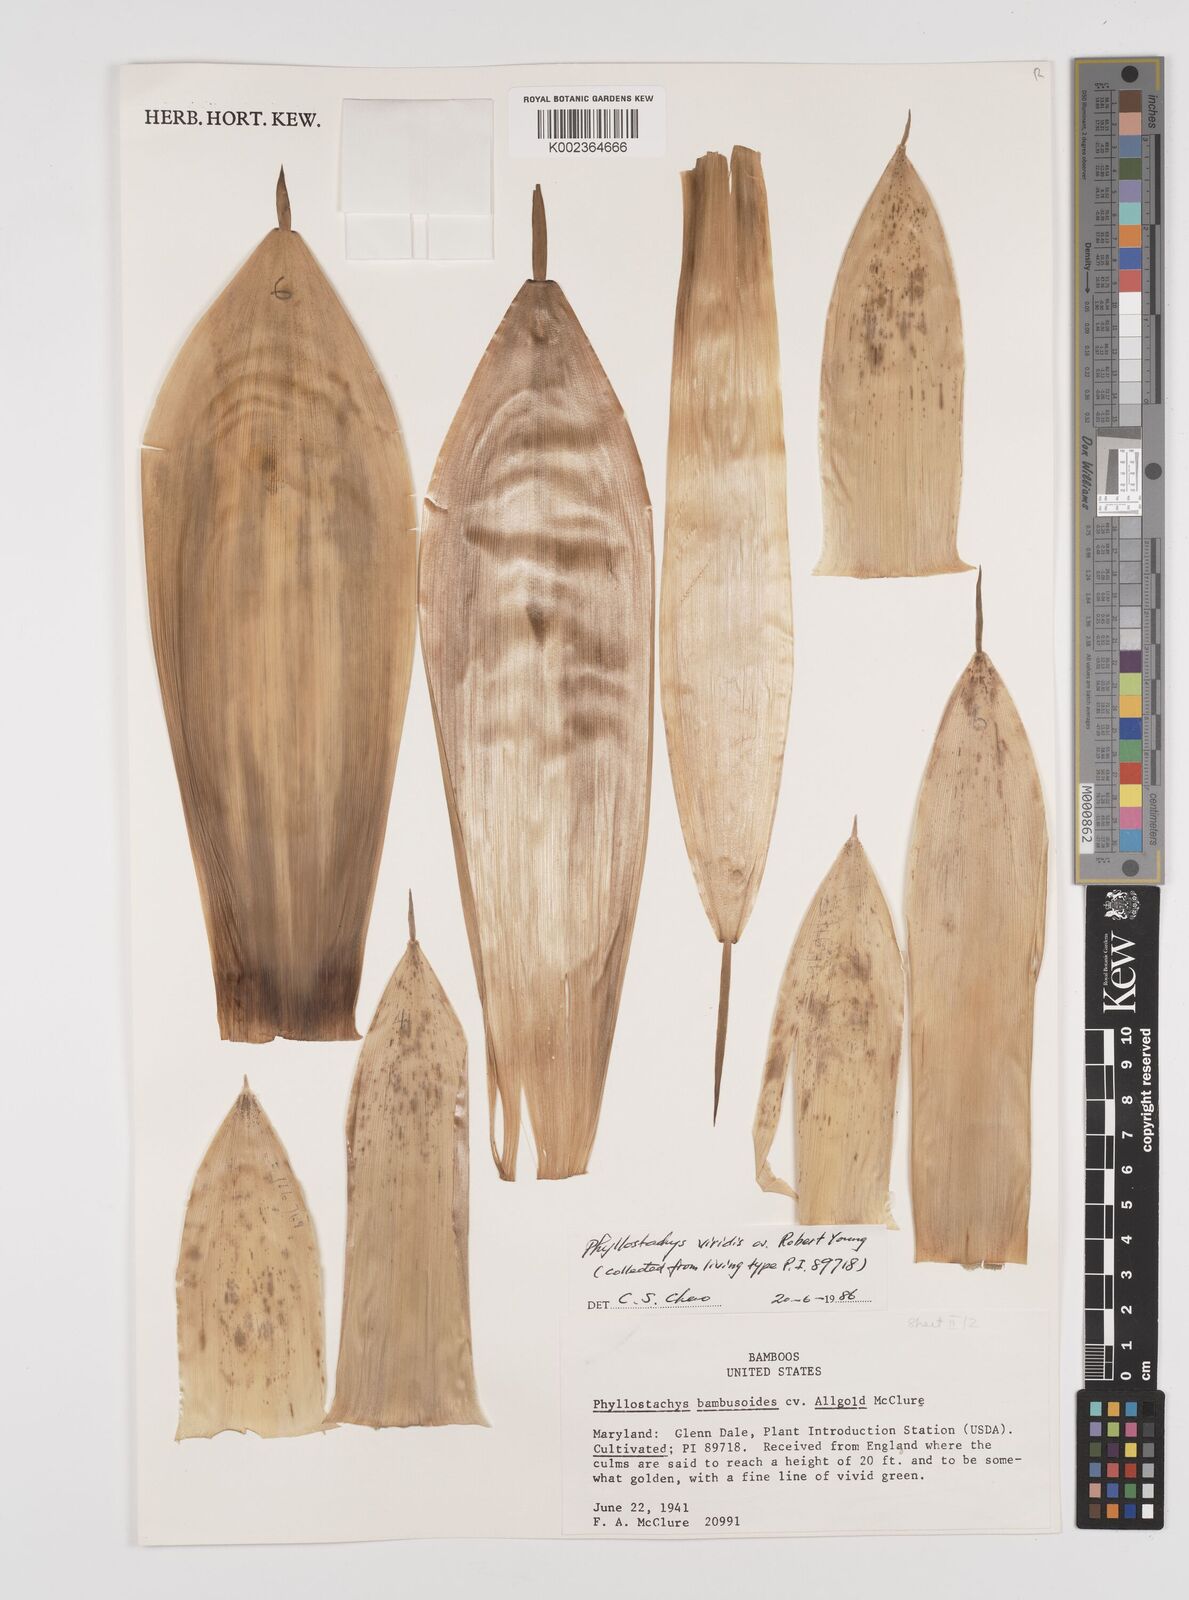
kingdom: Plantae
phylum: Tracheophyta
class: Liliopsida
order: Poales
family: Poaceae
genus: Phyllostachys
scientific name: Phyllostachys sulphurea
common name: Sulphur bamboo
